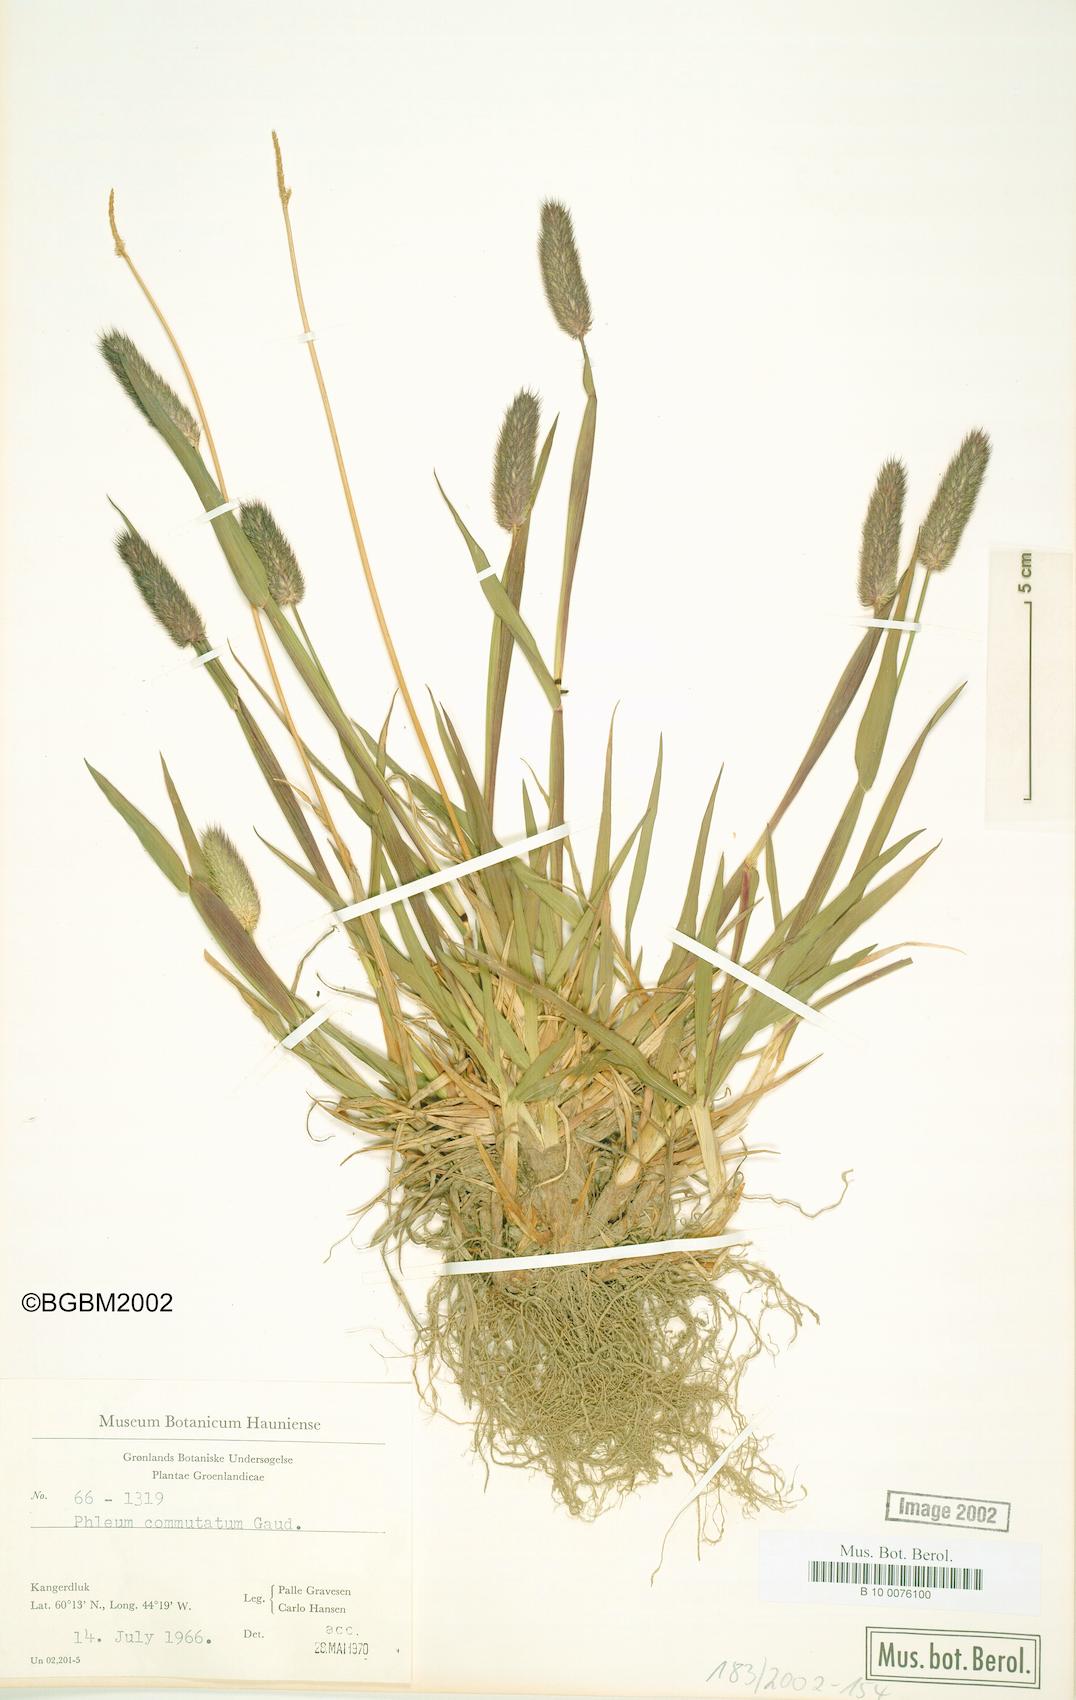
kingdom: Plantae
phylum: Tracheophyta
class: Liliopsida
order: Poales
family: Poaceae
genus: Phleum
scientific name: Phleum alpinum
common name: Alpine cat's-tail
